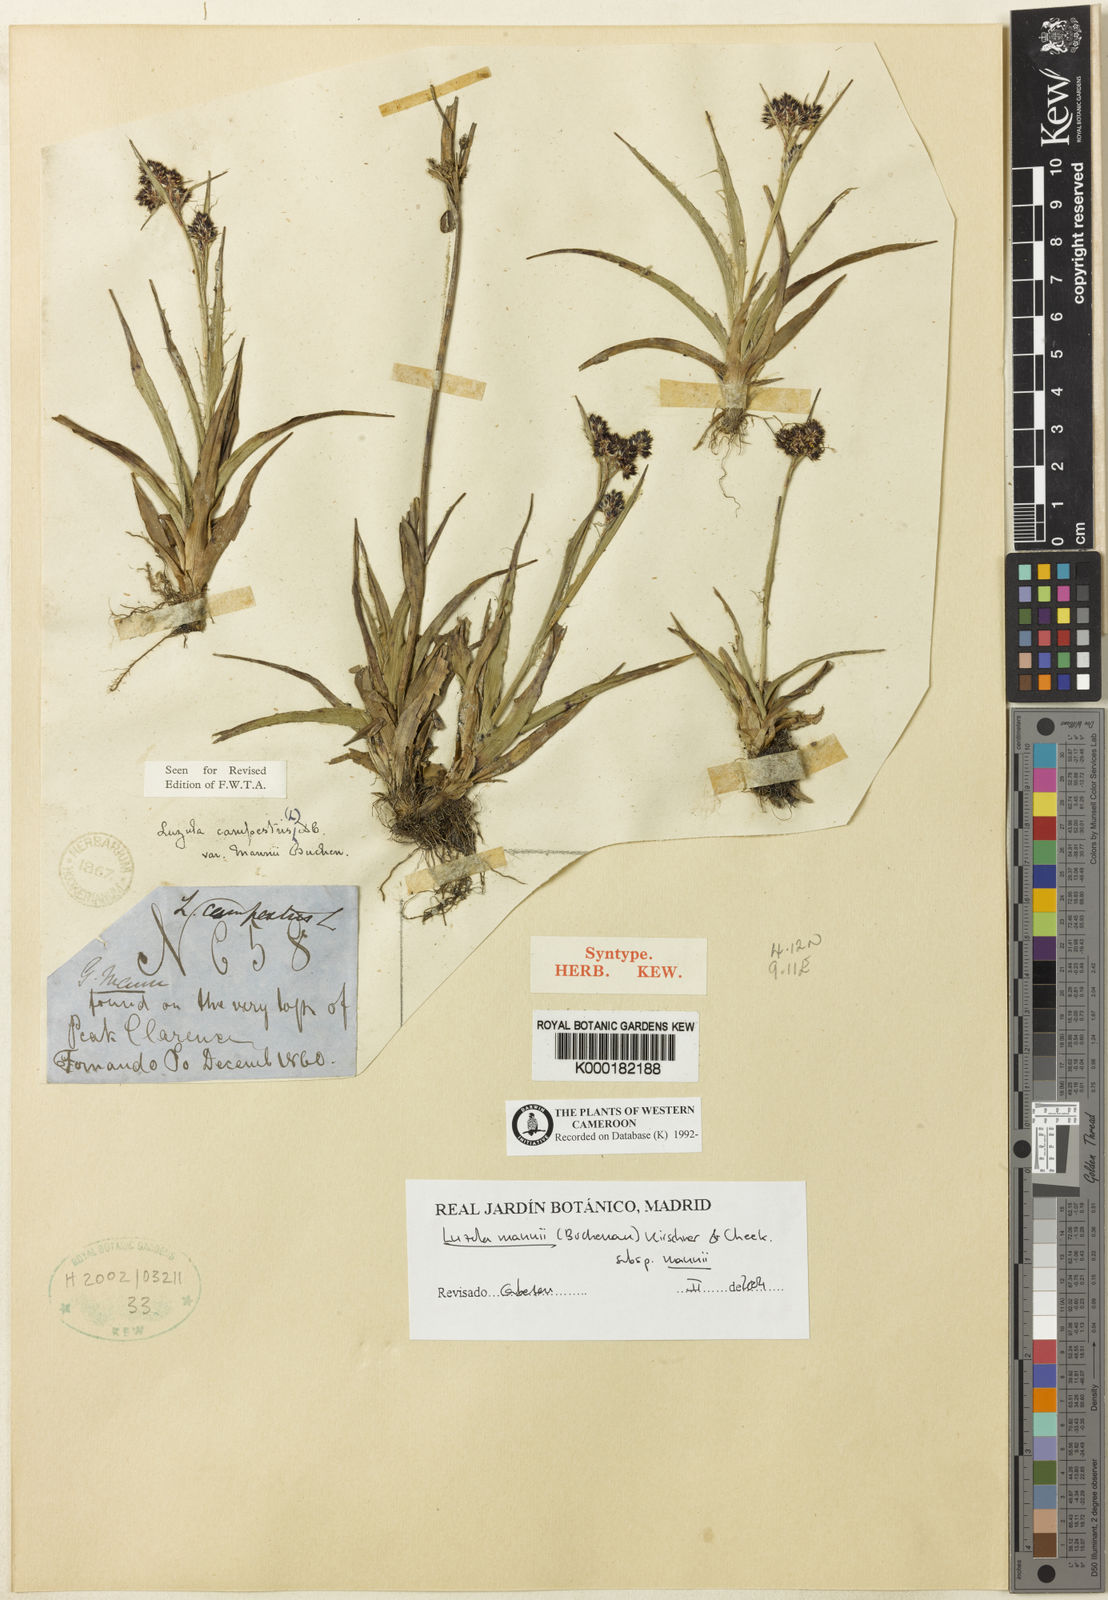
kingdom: Plantae
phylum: Tracheophyta
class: Liliopsida
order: Poales
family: Juncaceae
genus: Luzula
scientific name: Luzula campestris
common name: Field wood-rush
